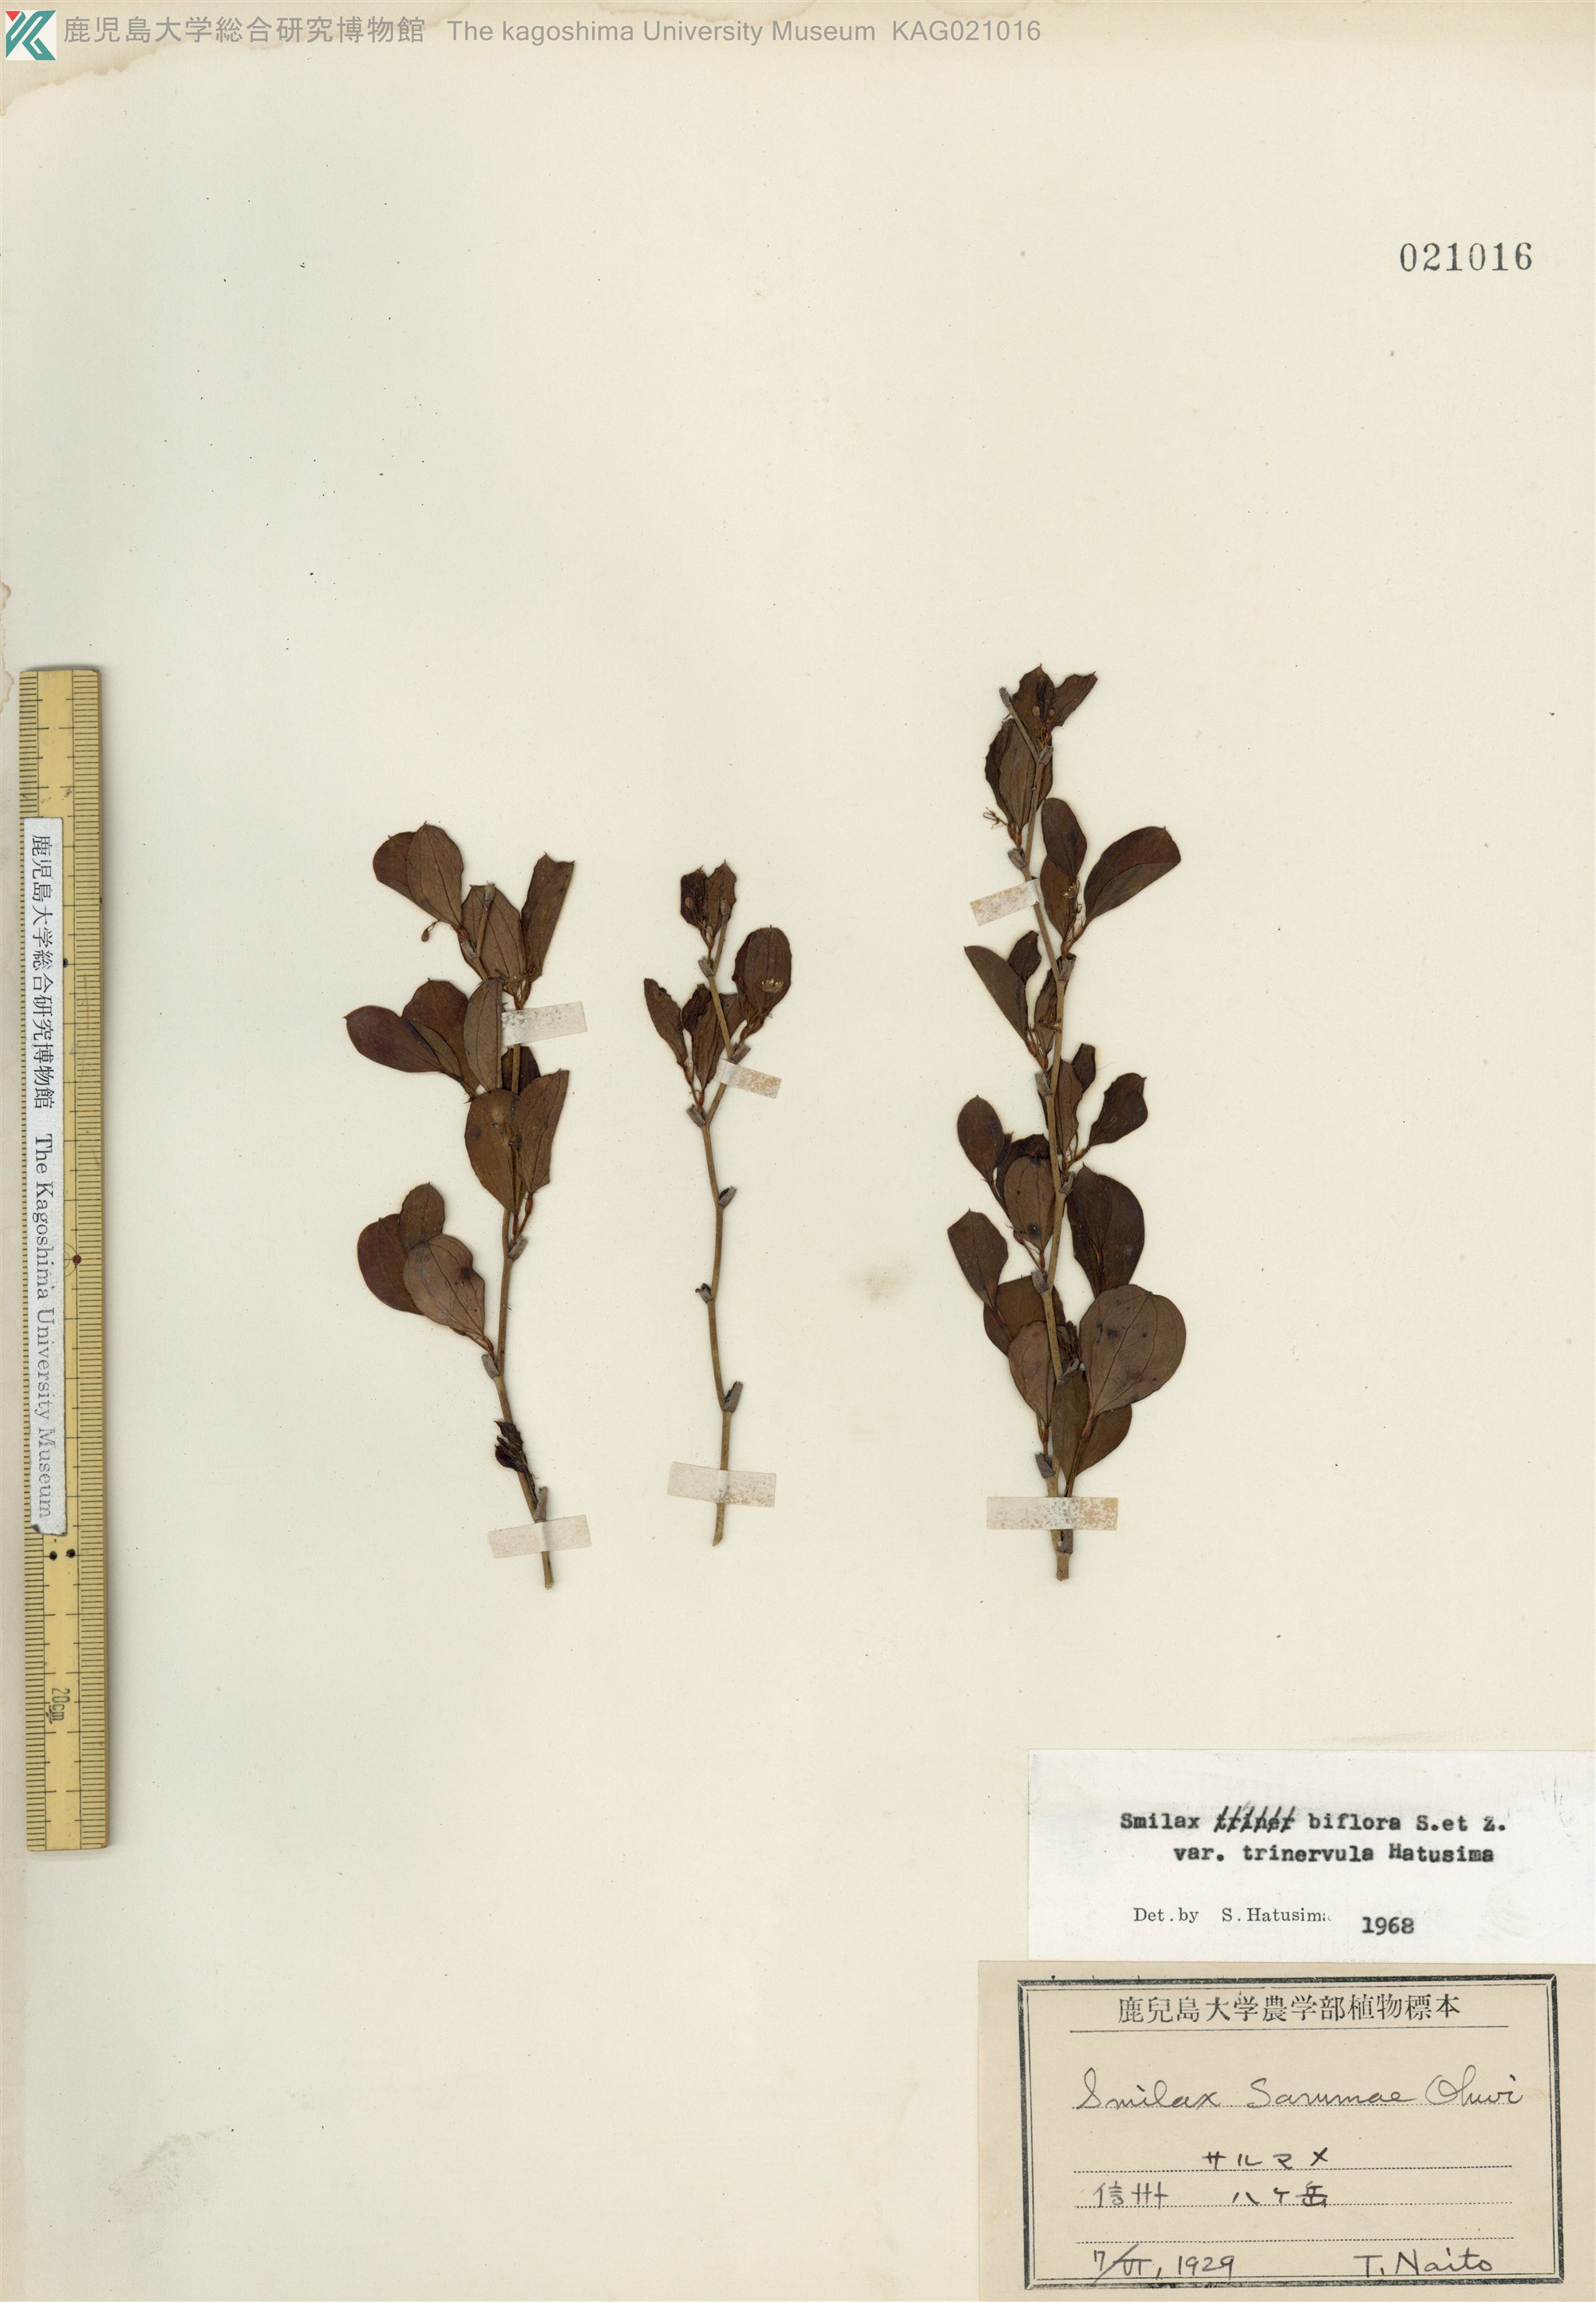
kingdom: Plantae
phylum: Tracheophyta
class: Liliopsida
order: Liliales
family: Smilacaceae
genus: Smilax
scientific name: Smilax trinervula
